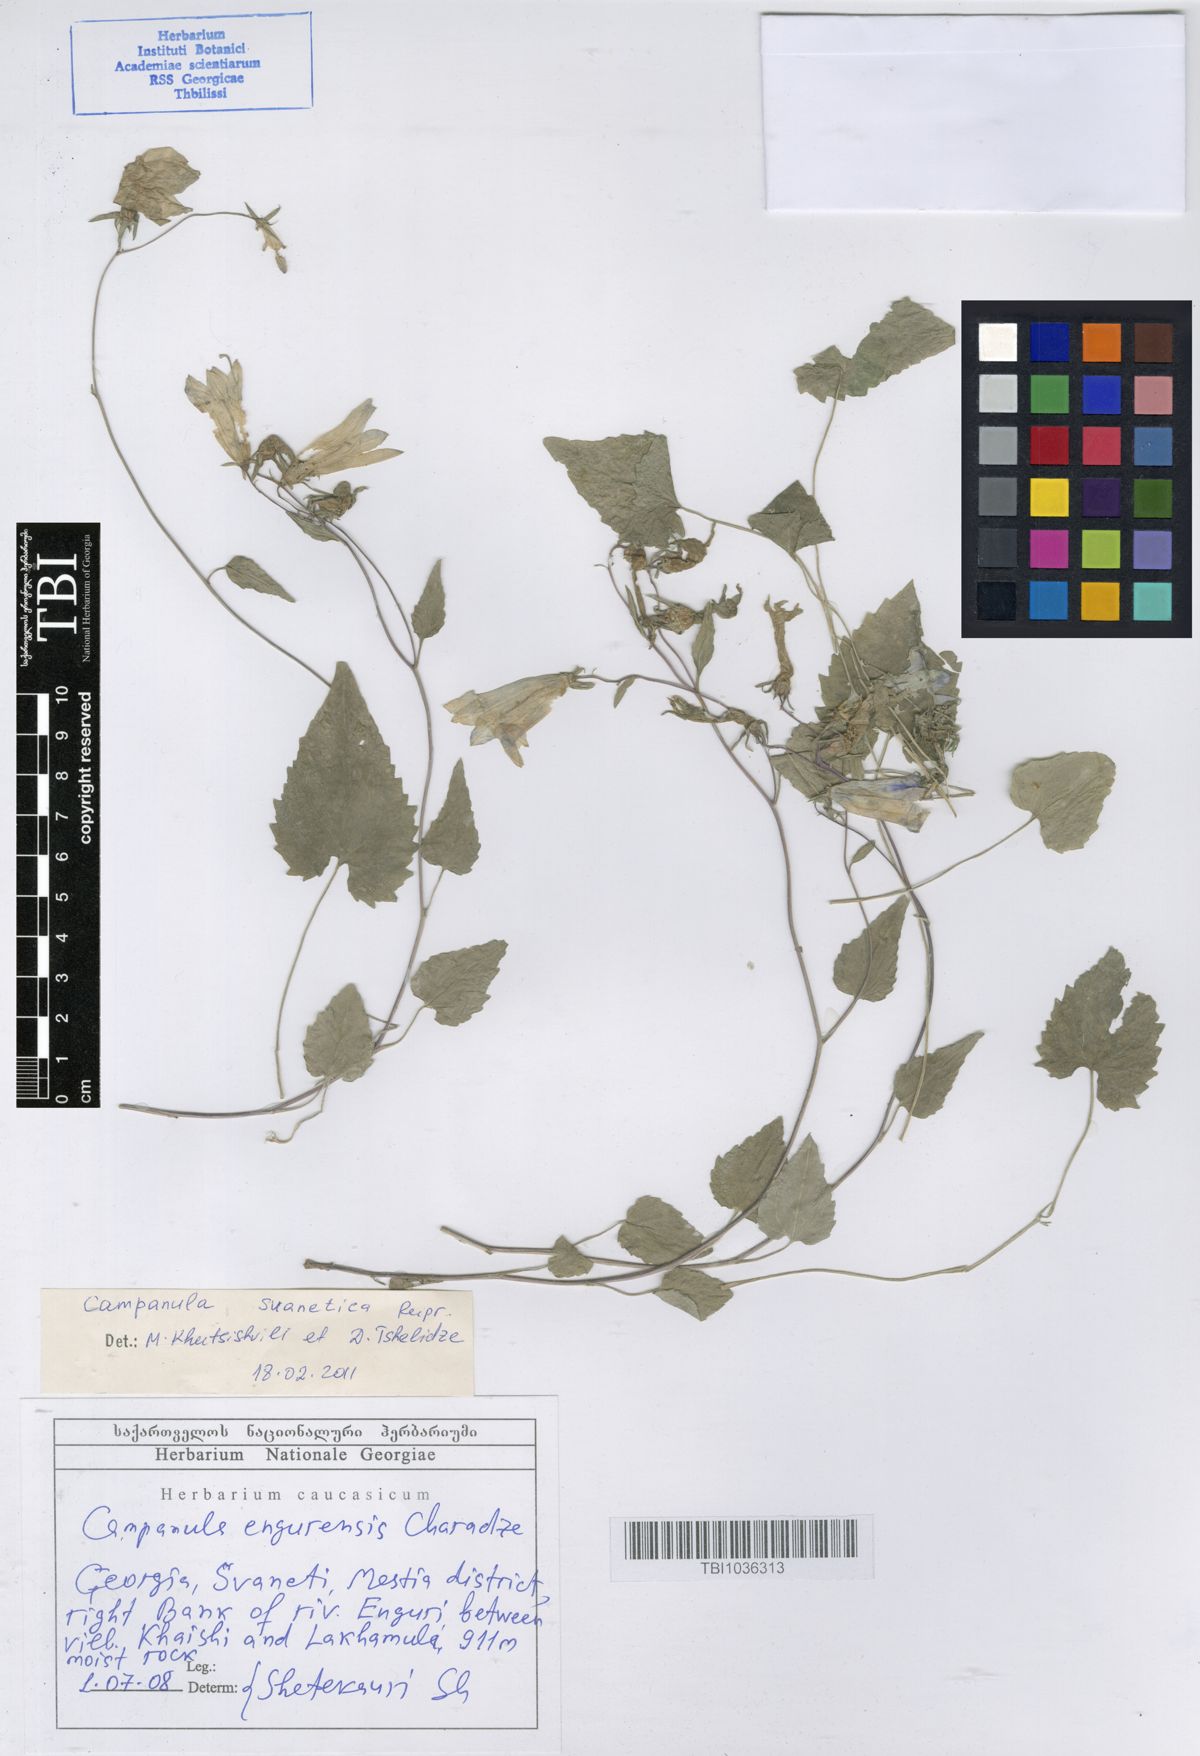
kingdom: Plantae
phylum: Tracheophyta
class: Magnoliopsida
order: Asterales
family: Campanulaceae
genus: Campanula
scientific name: Campanula suanetica
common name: Svanetian bellflower
